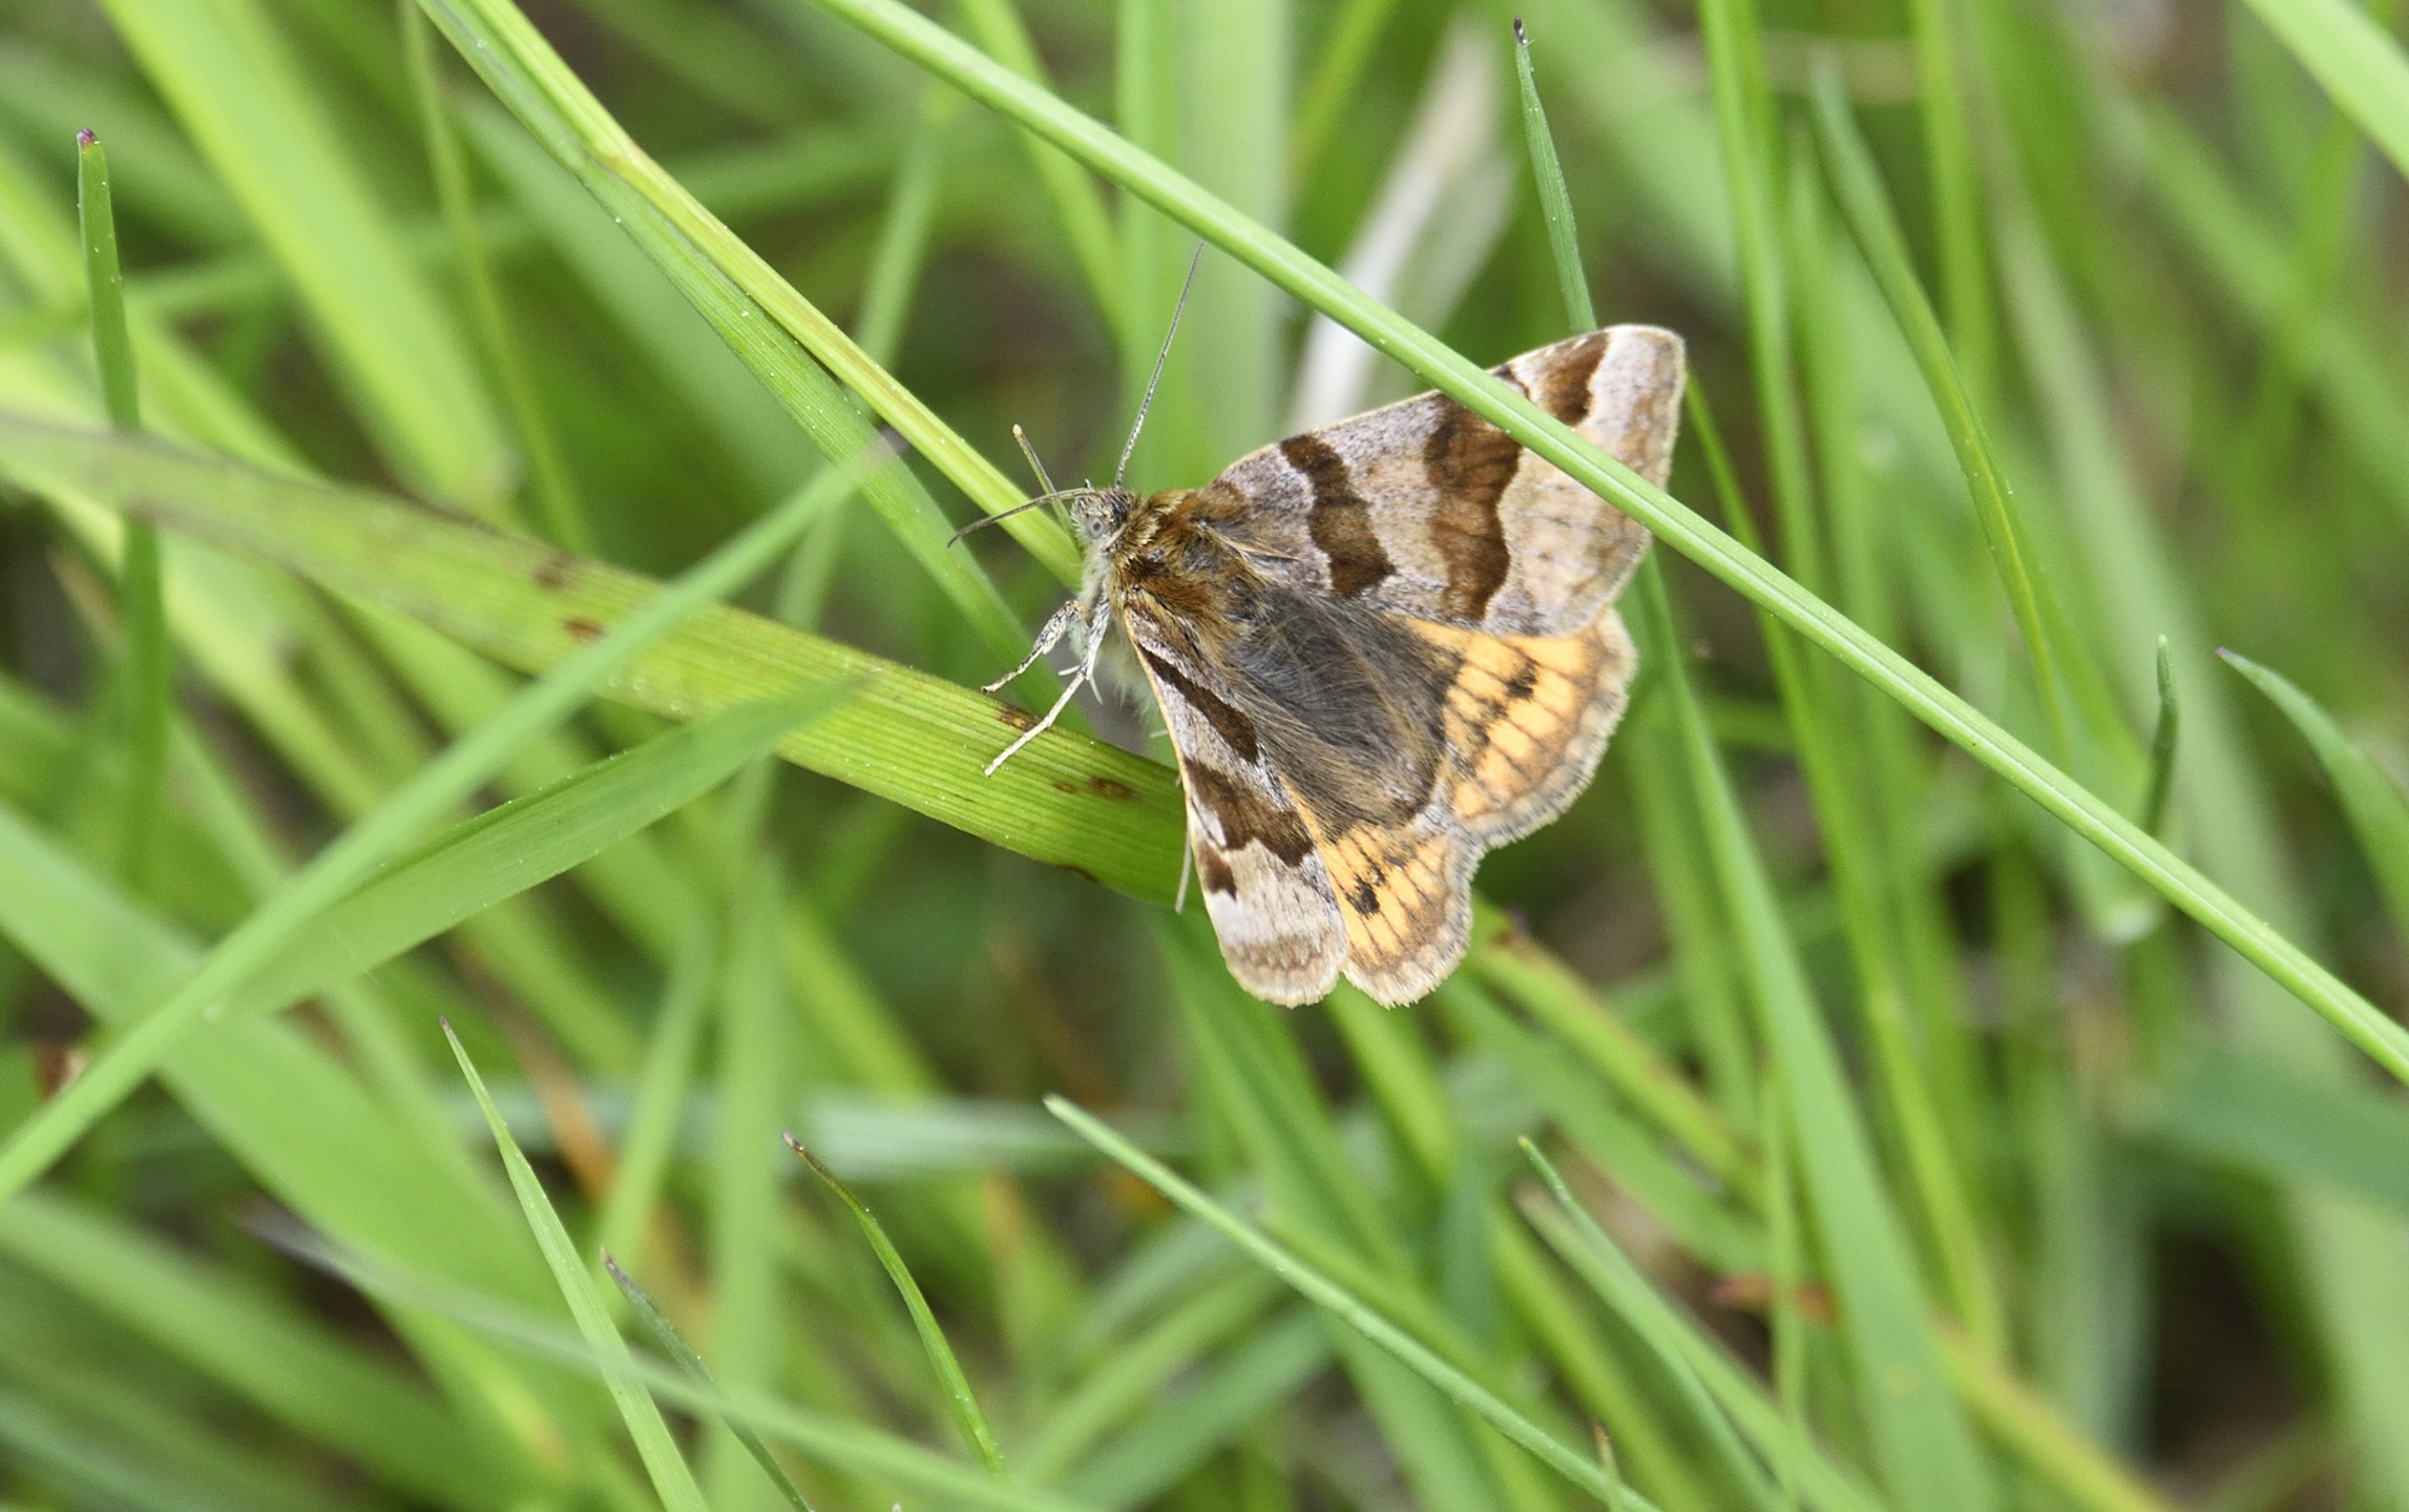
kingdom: Animalia
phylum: Arthropoda
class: Insecta
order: Lepidoptera
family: Erebidae
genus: Euclidia
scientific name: Euclidia glyphica
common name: Brun kløverugle
